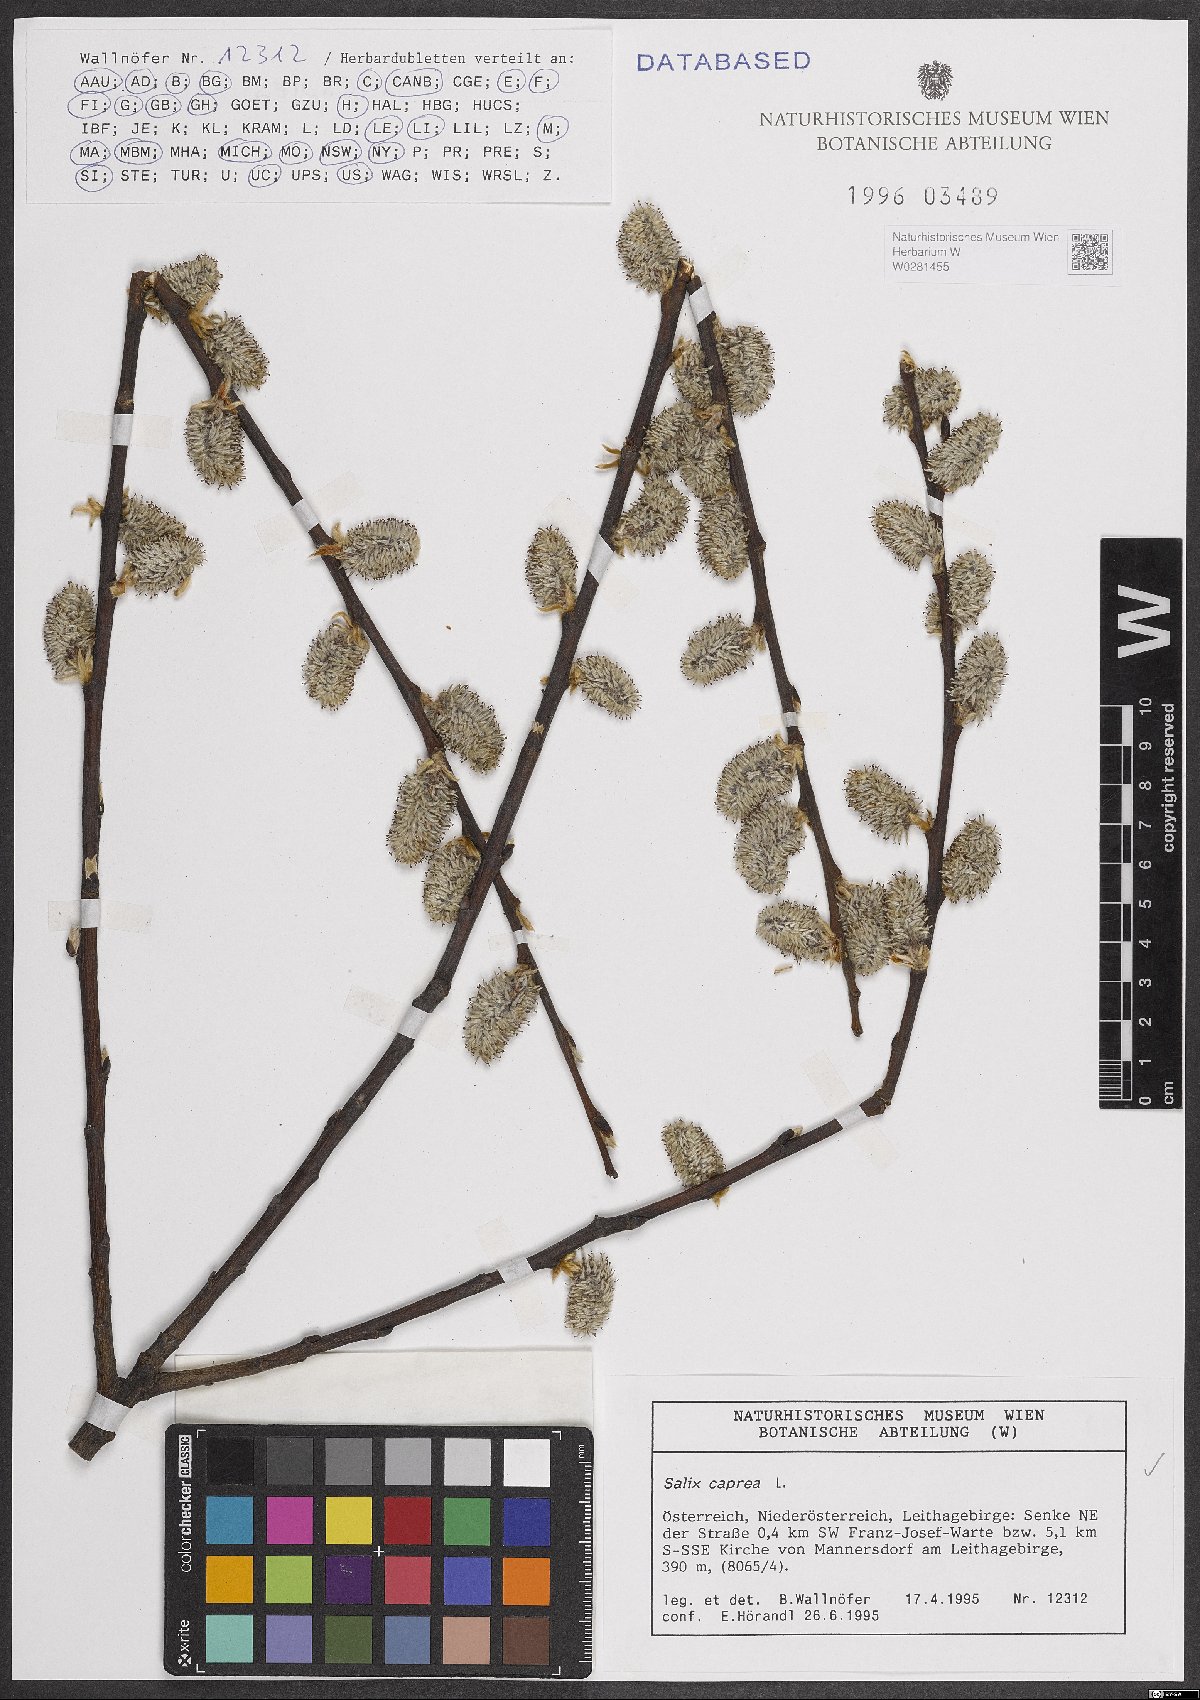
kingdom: Plantae
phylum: Tracheophyta
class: Magnoliopsida
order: Malpighiales
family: Salicaceae
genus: Salix
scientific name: Salix caprea
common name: Goat willow
